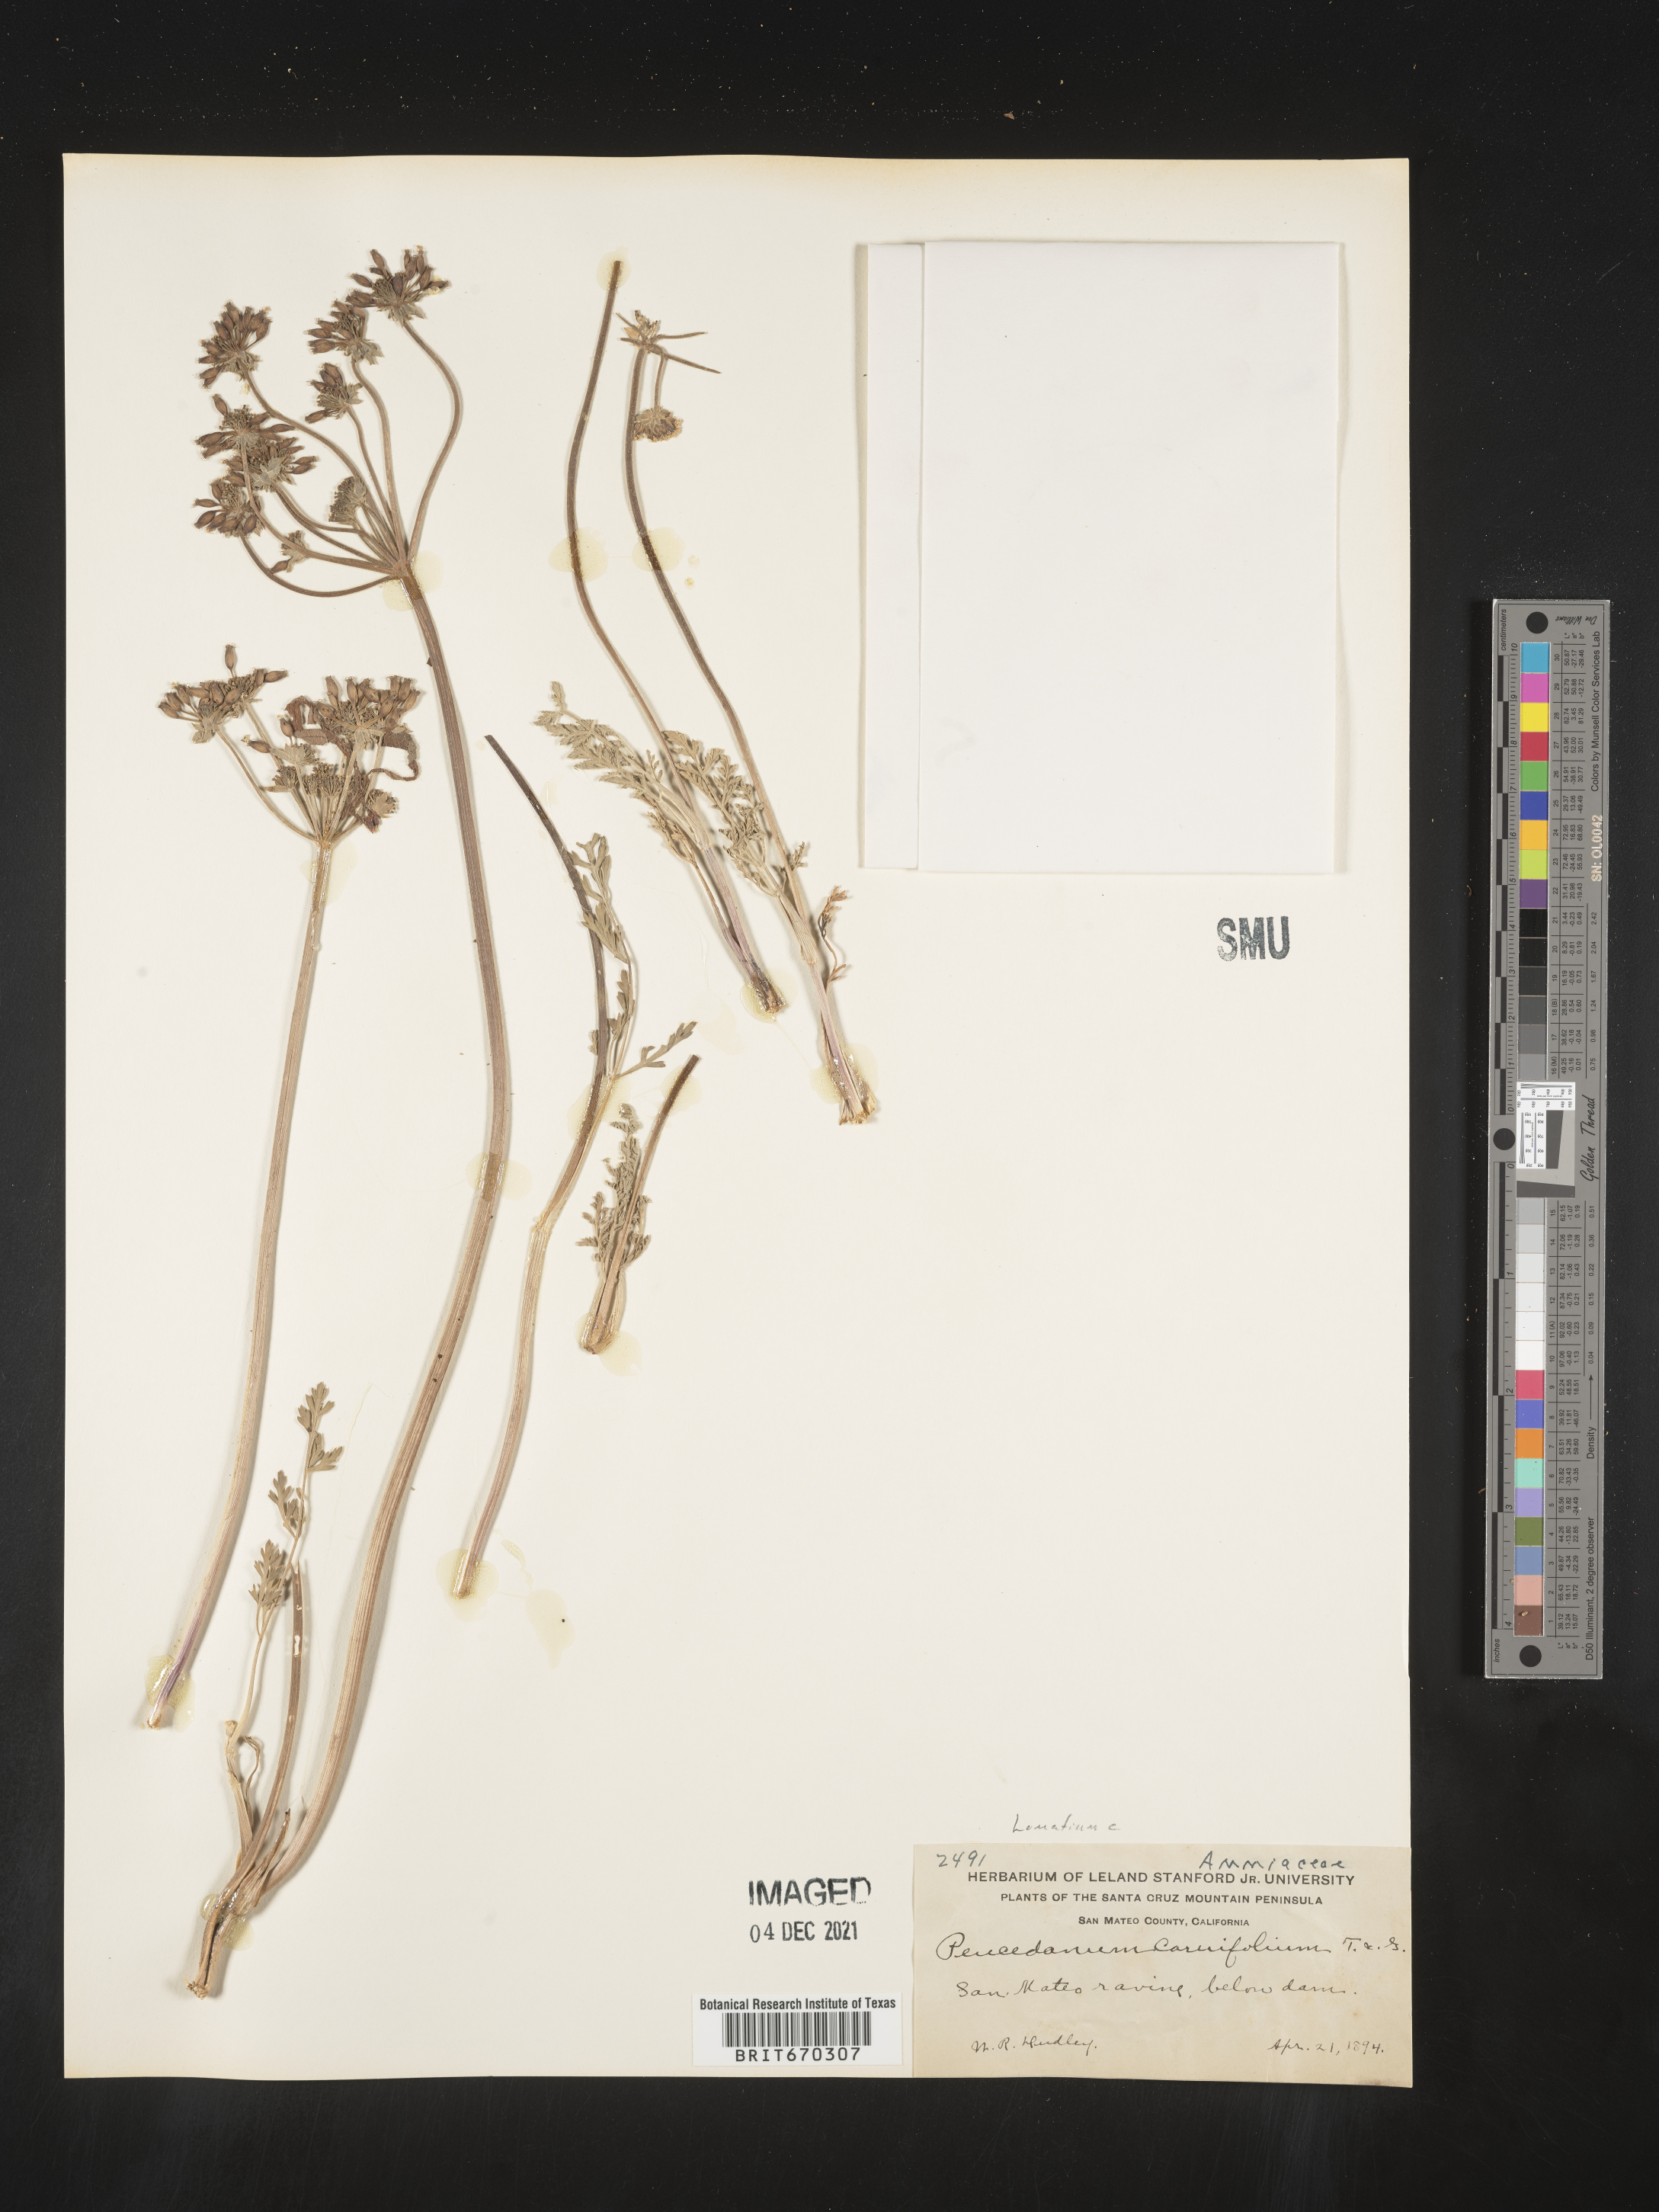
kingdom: Plantae
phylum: Tracheophyta
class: Magnoliopsida
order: Apiales
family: Apiaceae
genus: Lomatium
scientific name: Lomatium caruifolium
